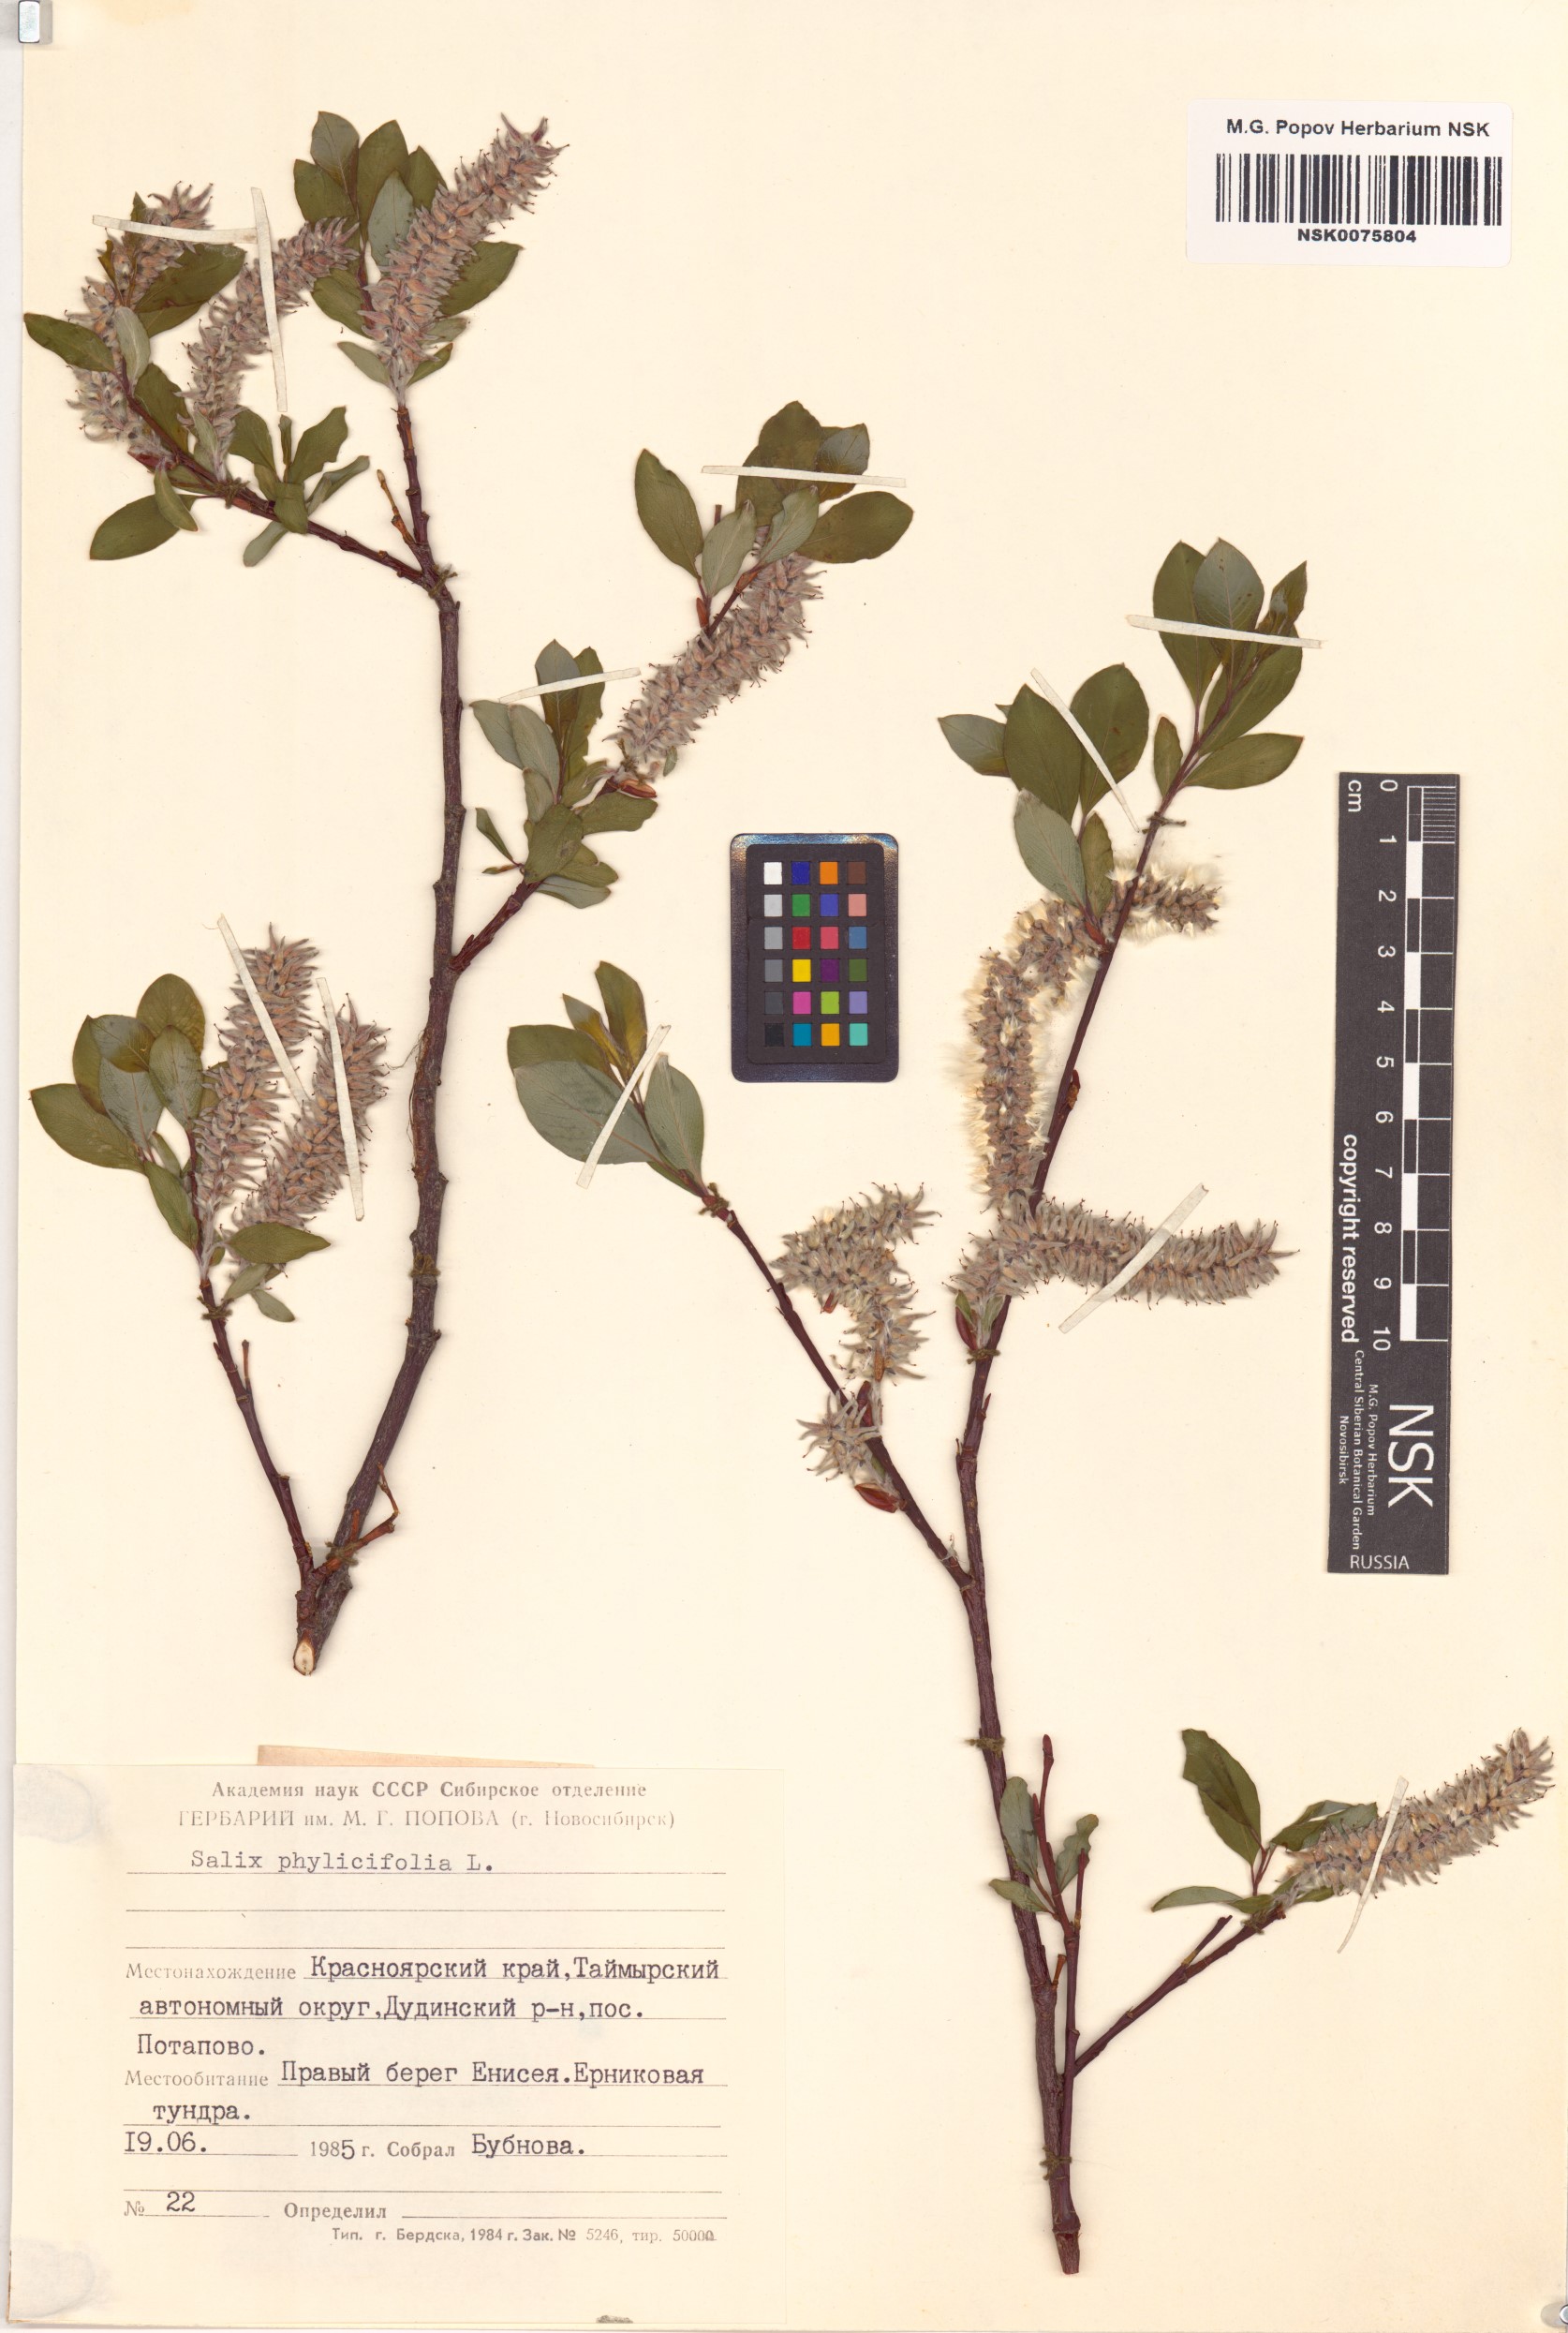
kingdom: Plantae
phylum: Tracheophyta
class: Magnoliopsida
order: Malpighiales
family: Salicaceae
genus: Salix
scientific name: Salix phylicifolia
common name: Tea-leaved willow
